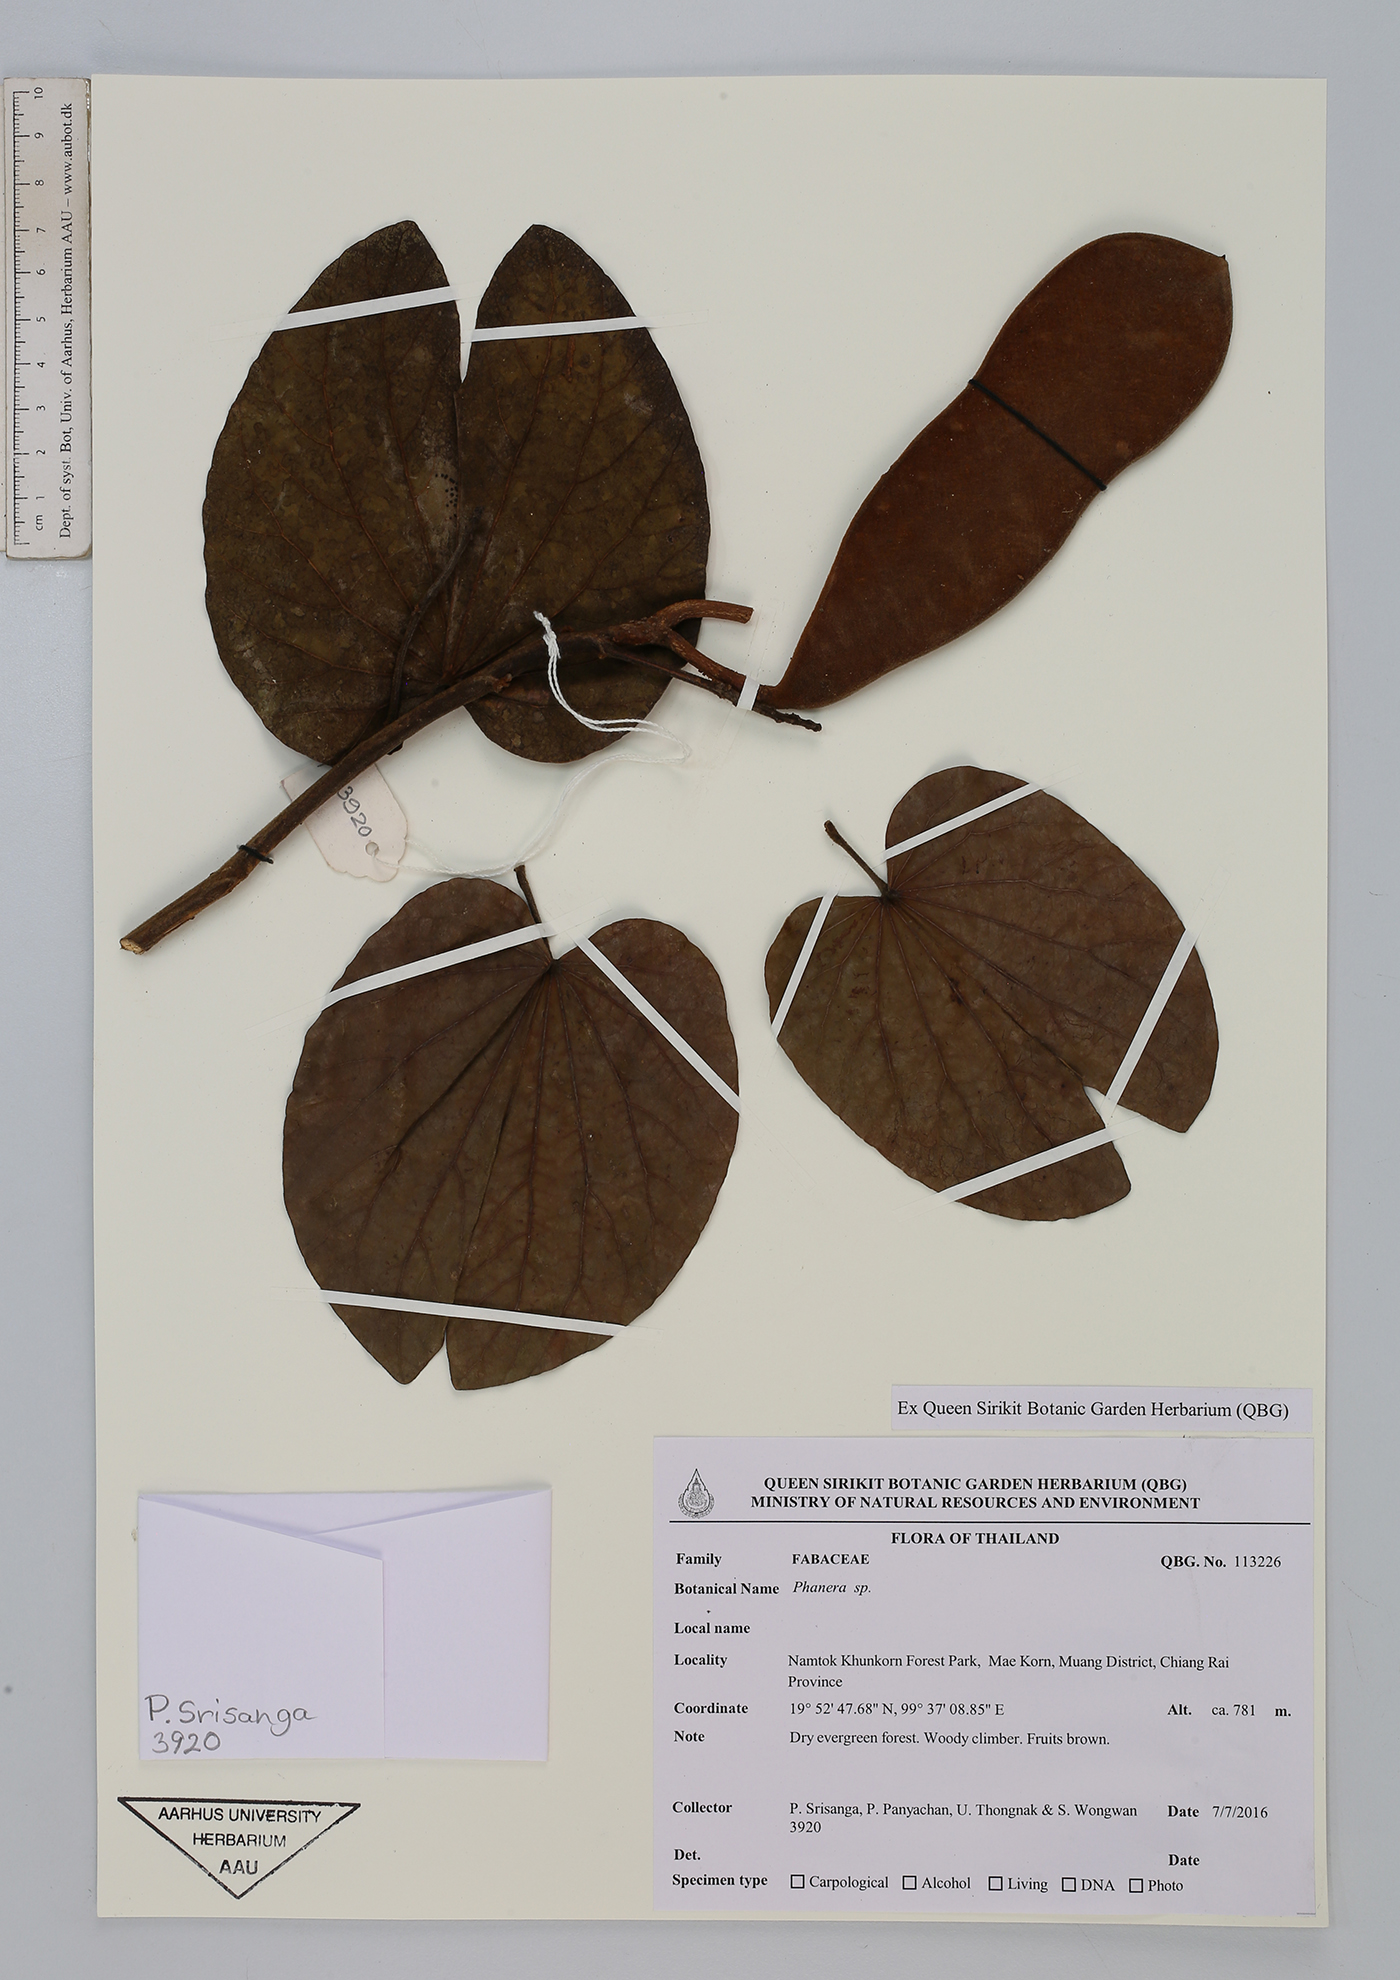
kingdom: Plantae
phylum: Tracheophyta
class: Magnoliopsida
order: Fabales
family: Fabaceae
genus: Phanera
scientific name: Phanera
